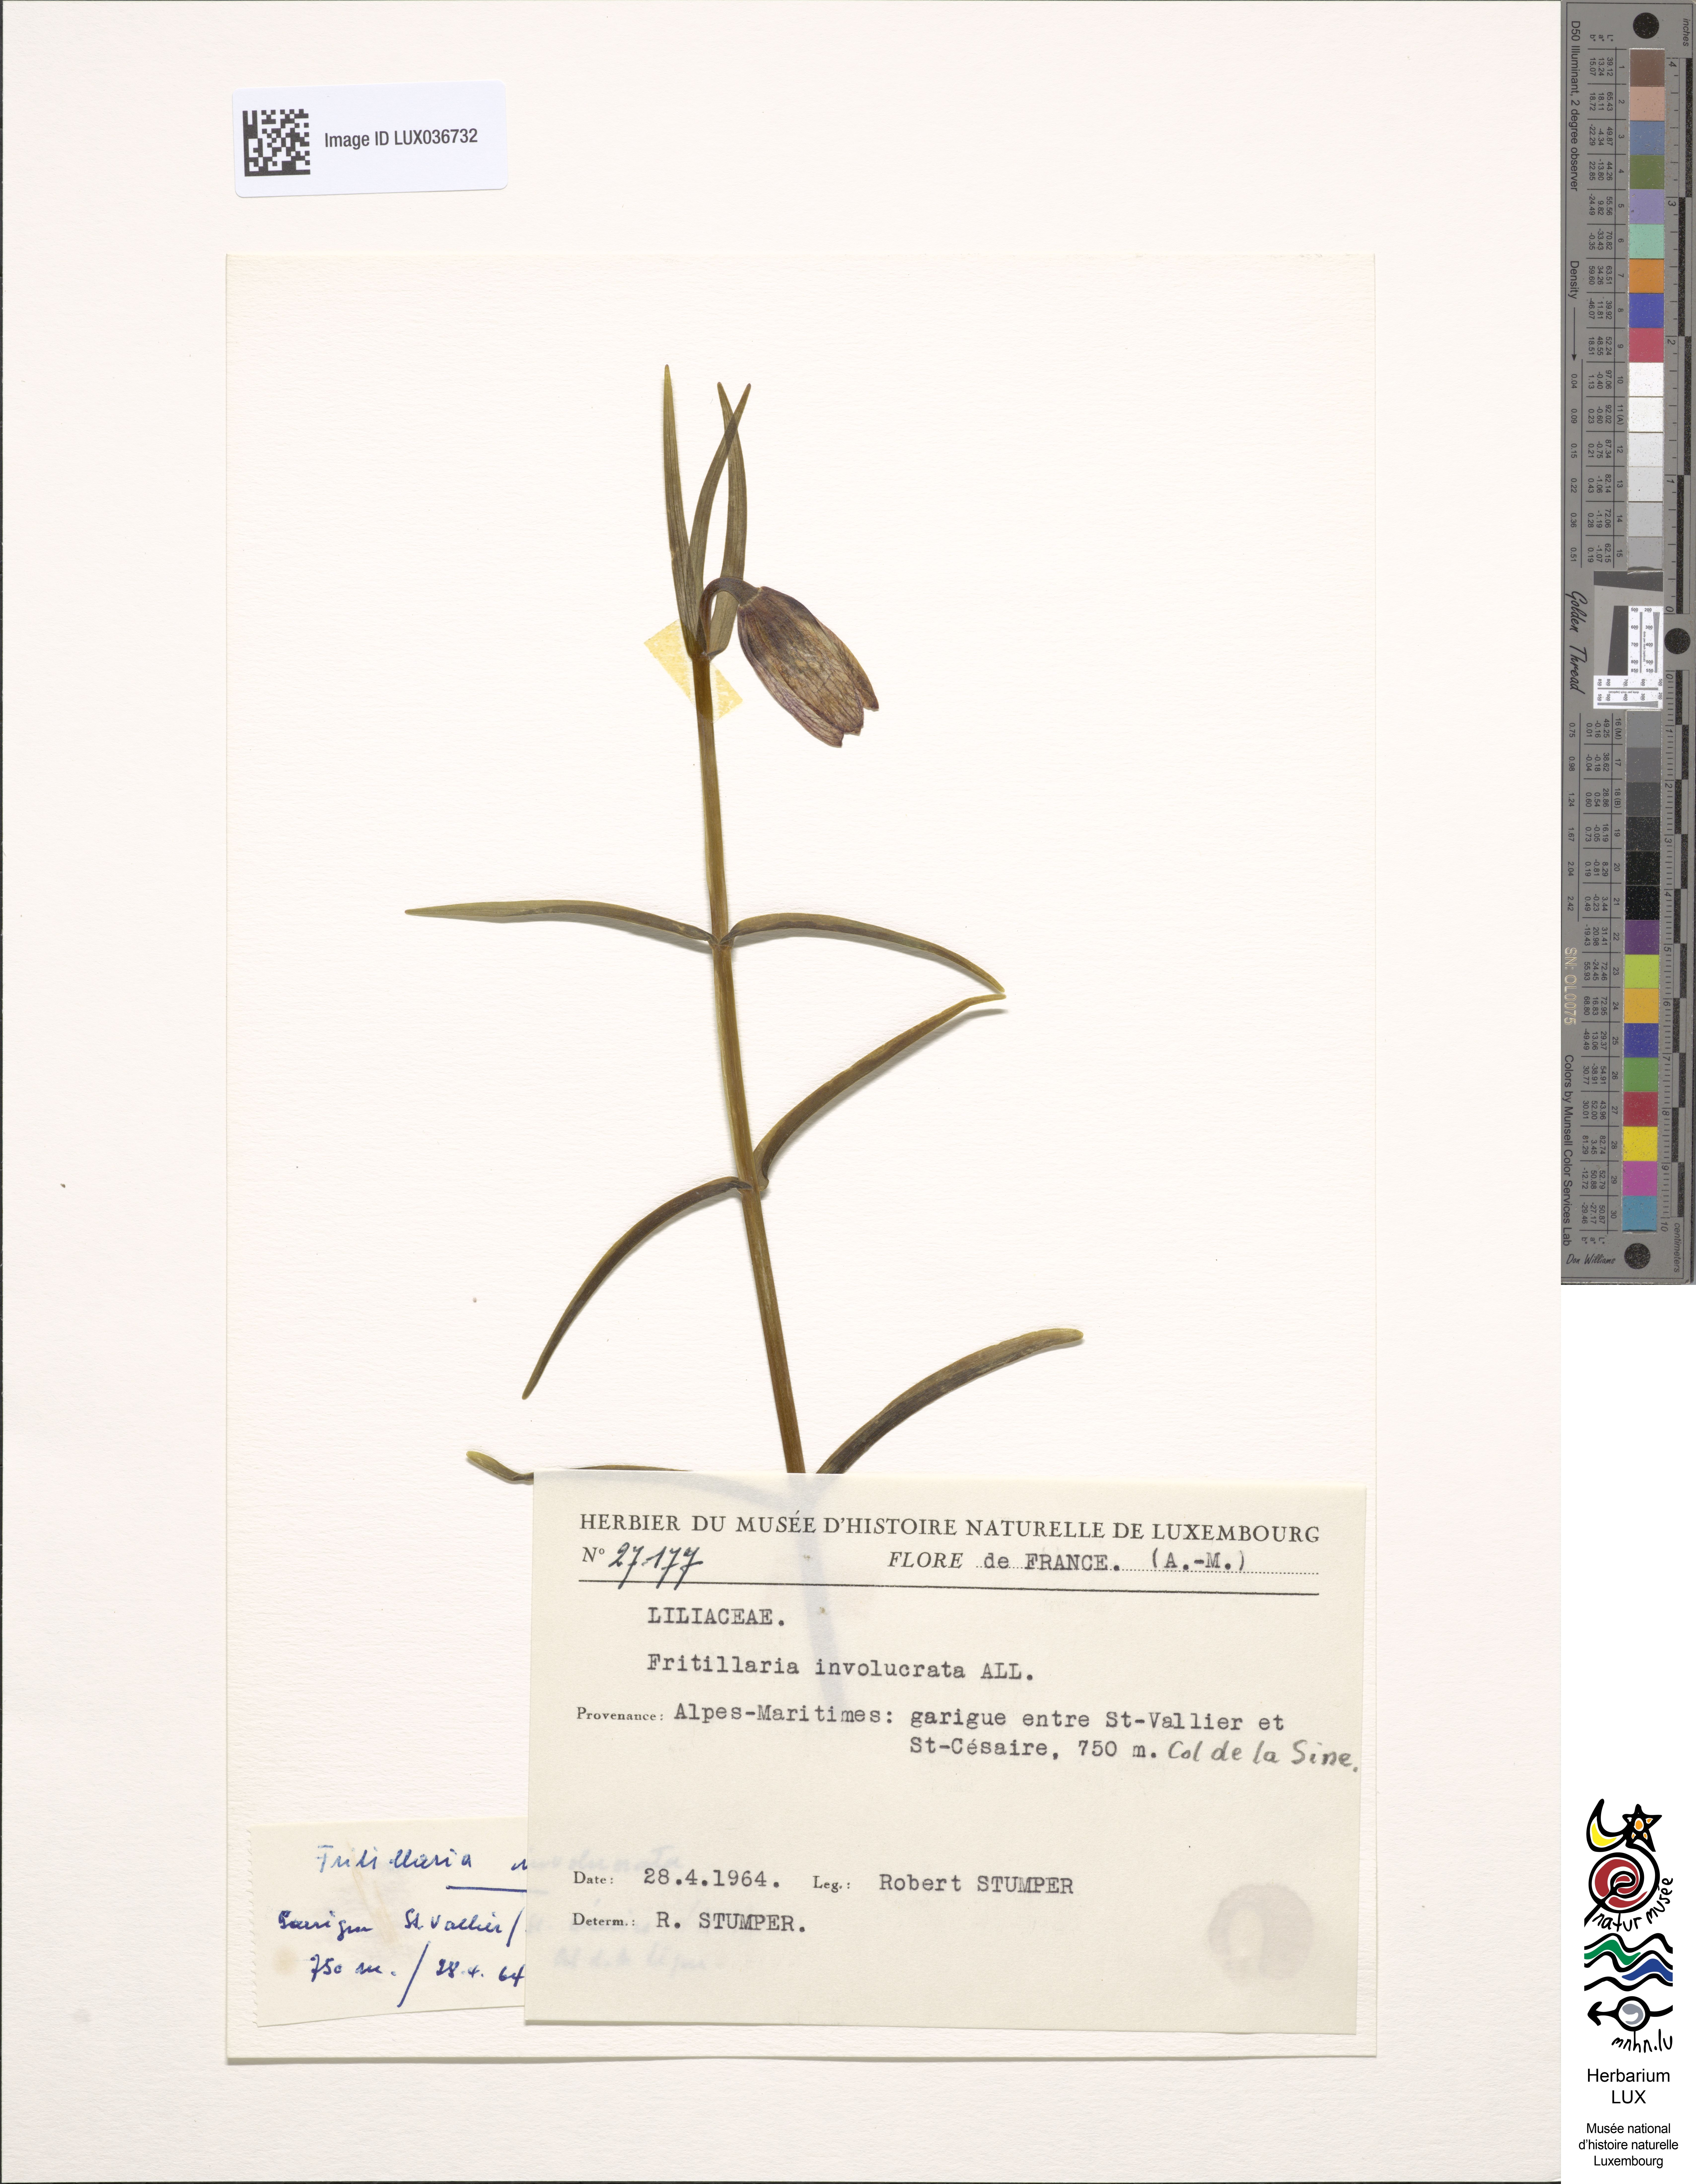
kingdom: Plantae
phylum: Tracheophyta
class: Liliopsida
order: Liliales
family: Liliaceae
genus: Fritillaria
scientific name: Fritillaria involucrata
